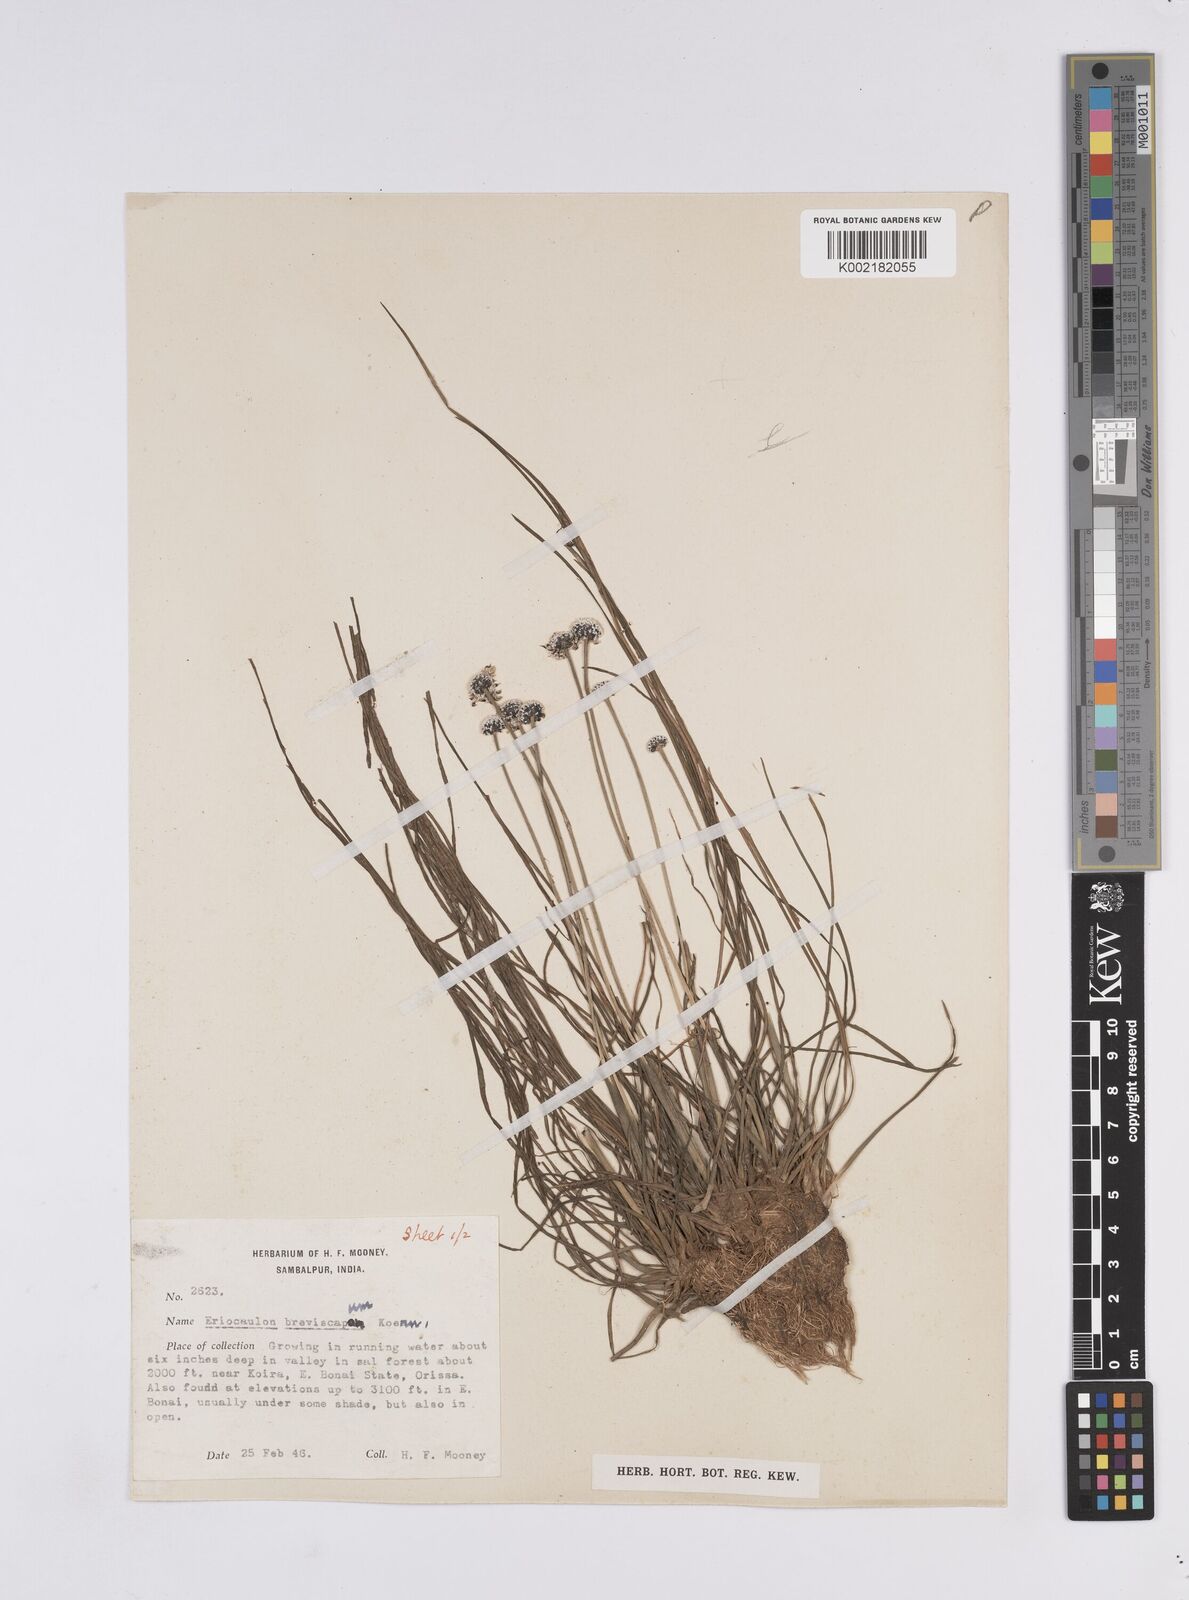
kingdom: Plantae
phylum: Tracheophyta
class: Liliopsida
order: Poales
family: Eriocaulaceae
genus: Eriocaulon
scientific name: Eriocaulon breviscapum
